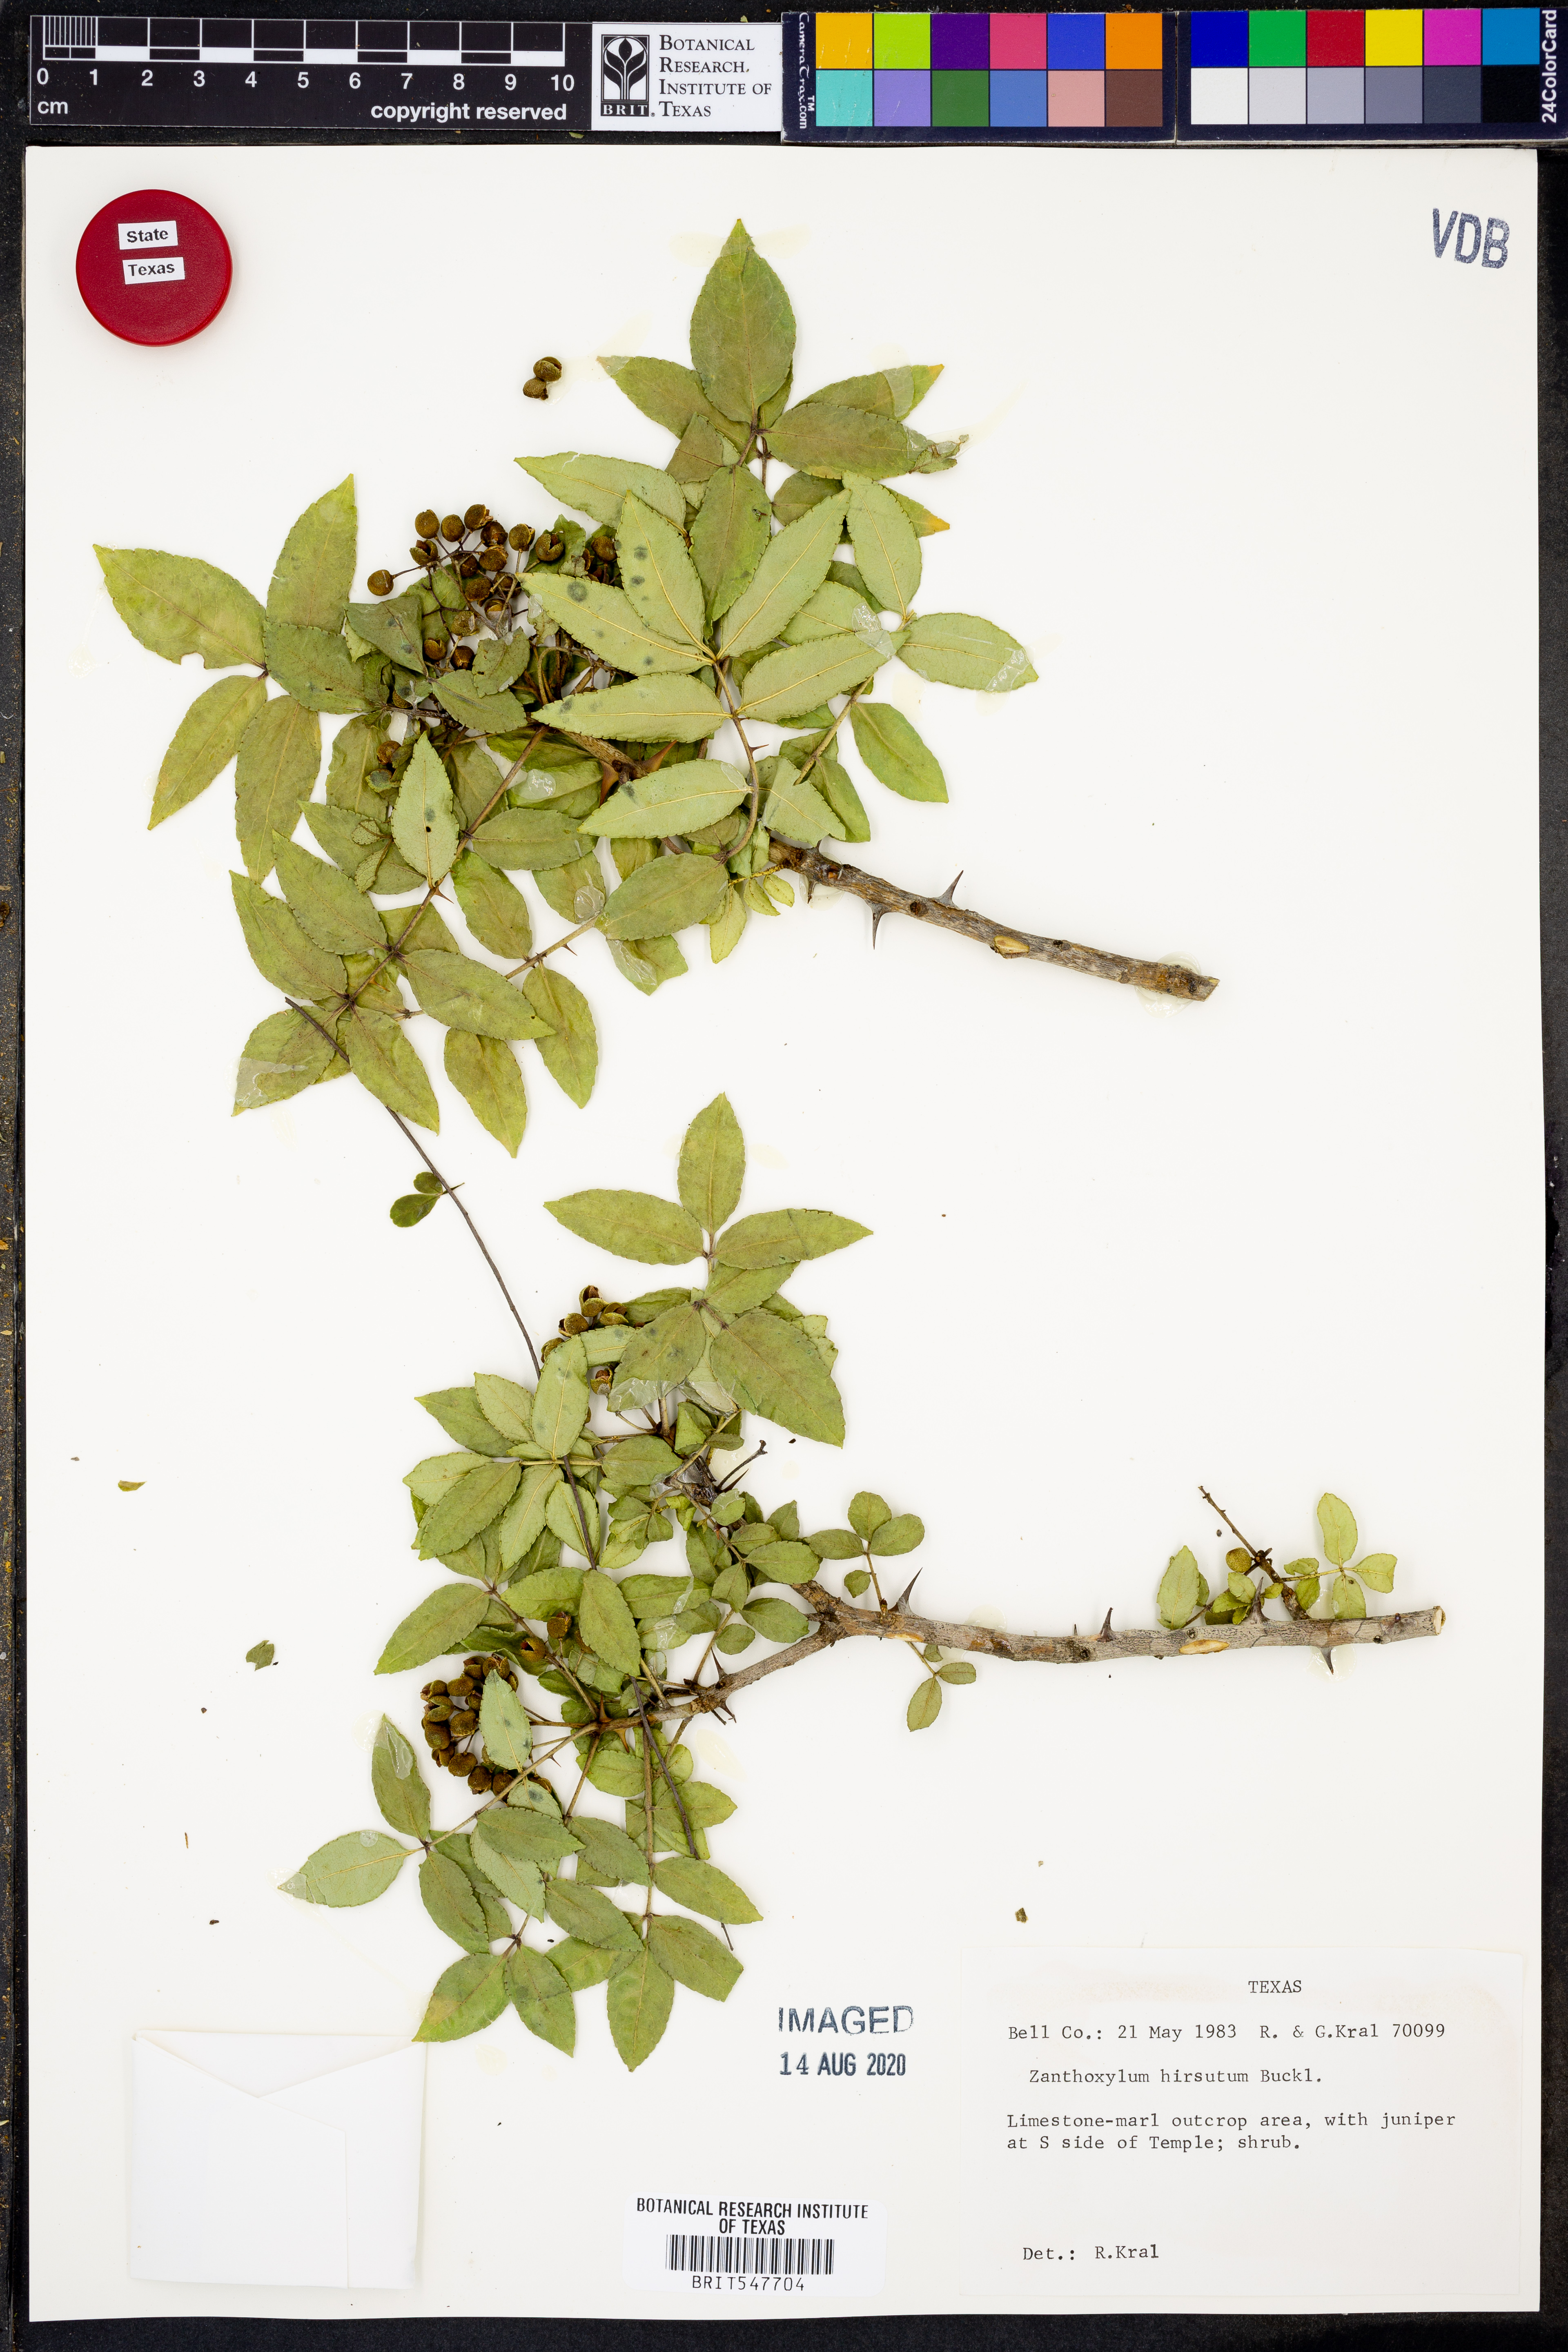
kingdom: Plantae
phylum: Tracheophyta
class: Magnoliopsida
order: Sapindales
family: Rutaceae
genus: Zanthoxylum
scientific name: Zanthoxylum clava-herculis
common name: Hercules'-club
